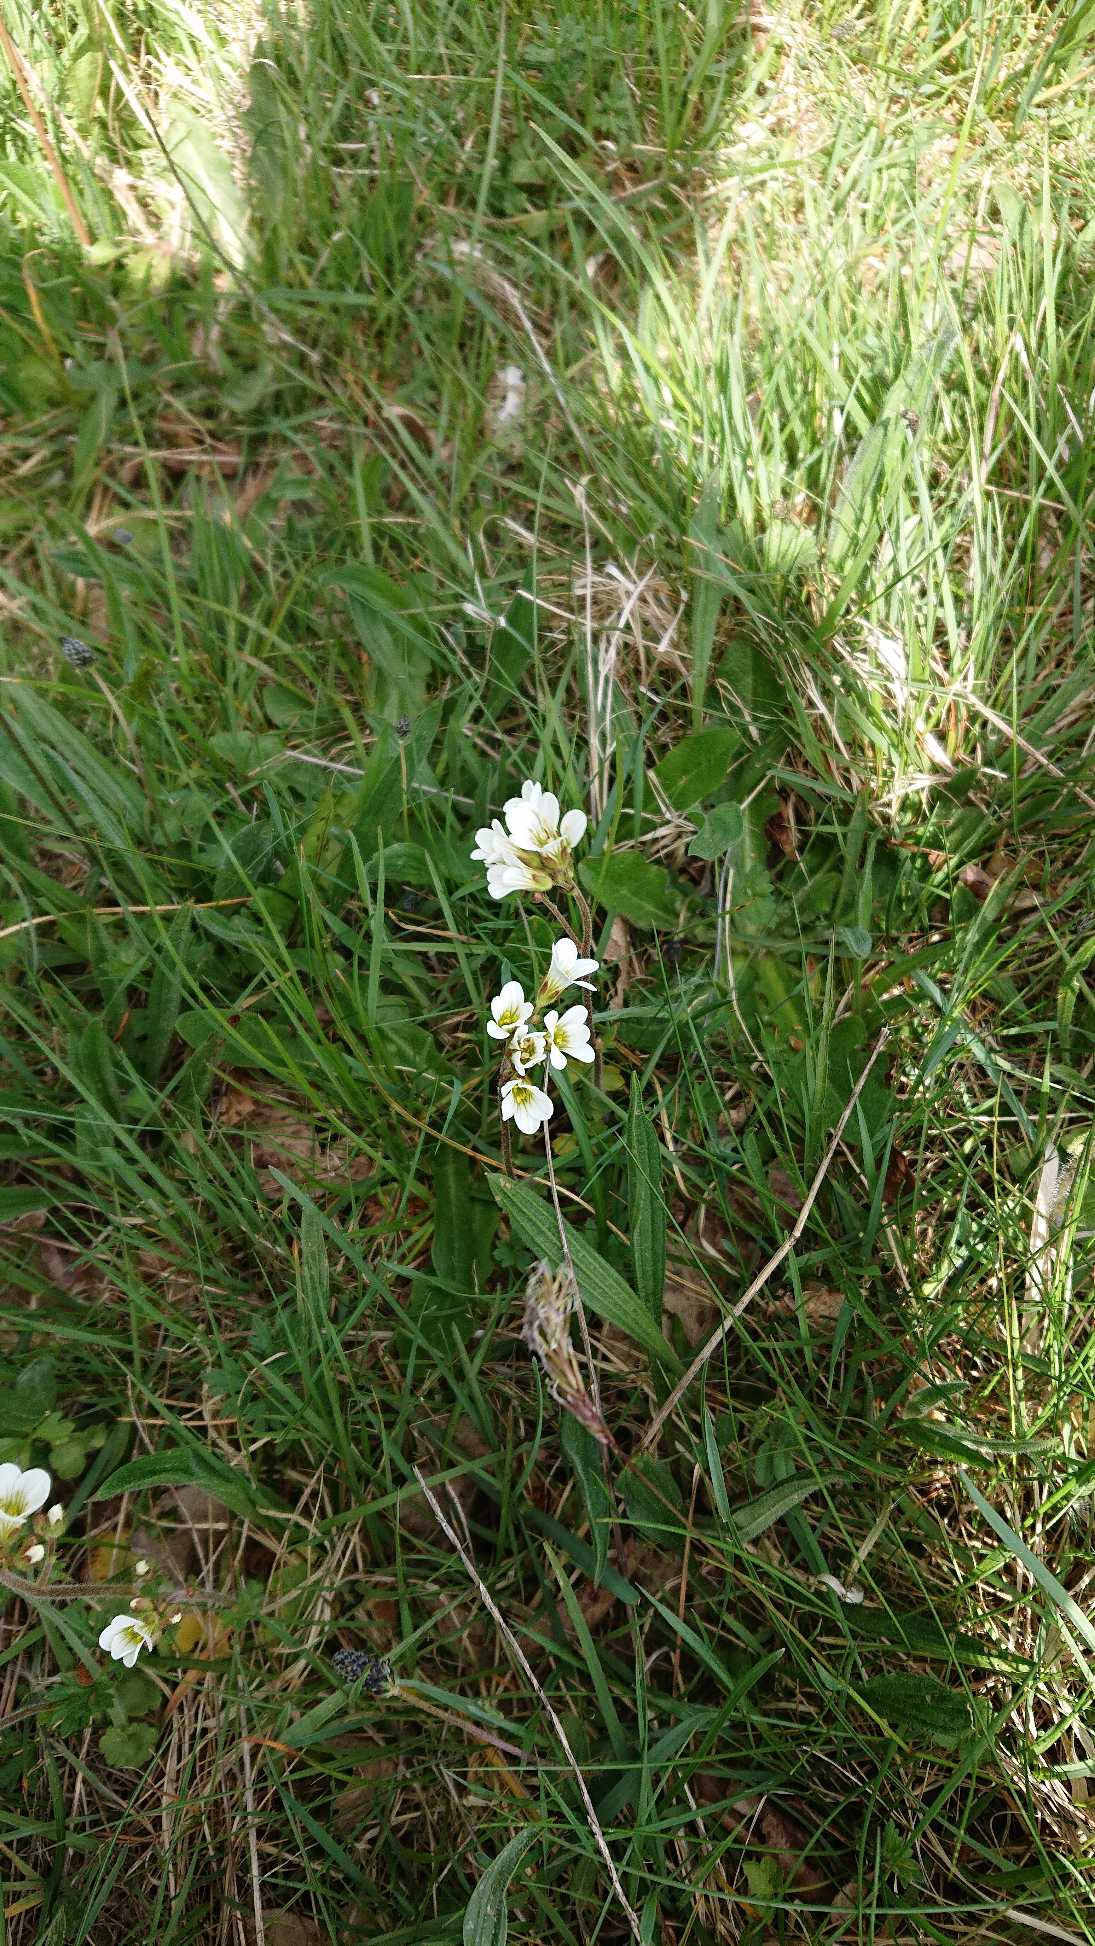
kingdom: Plantae
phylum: Tracheophyta
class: Magnoliopsida
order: Saxifragales
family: Saxifragaceae
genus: Saxifraga
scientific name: Saxifraga granulata
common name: Kornet stenbræk
